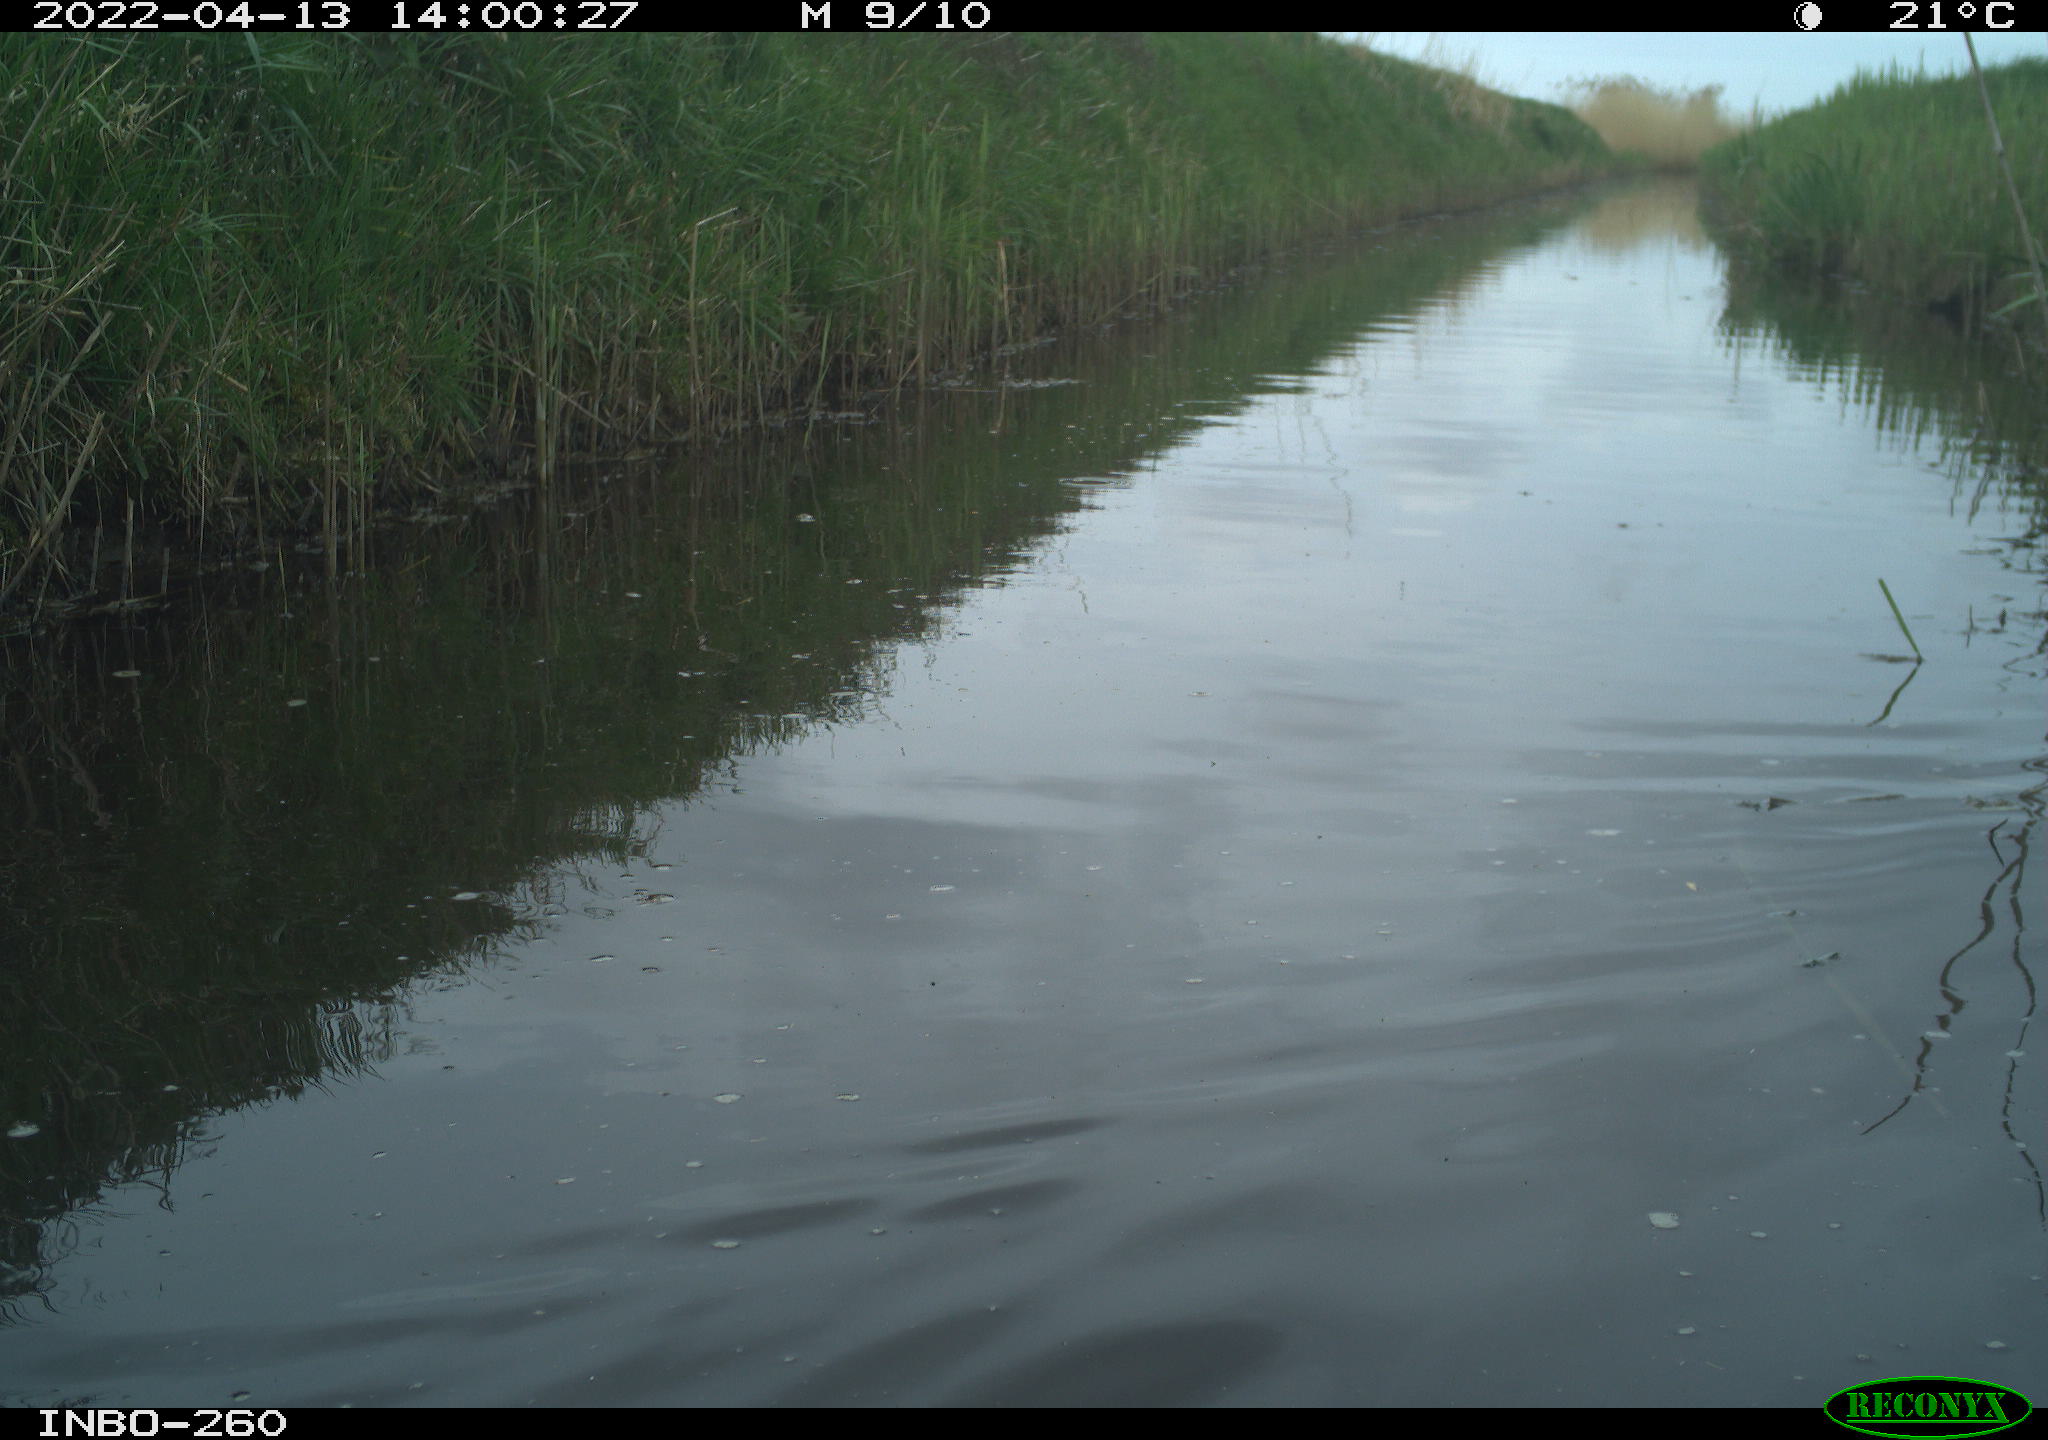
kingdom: Animalia
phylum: Chordata
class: Aves
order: Gruiformes
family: Rallidae
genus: Fulica
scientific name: Fulica atra
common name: Eurasian coot
